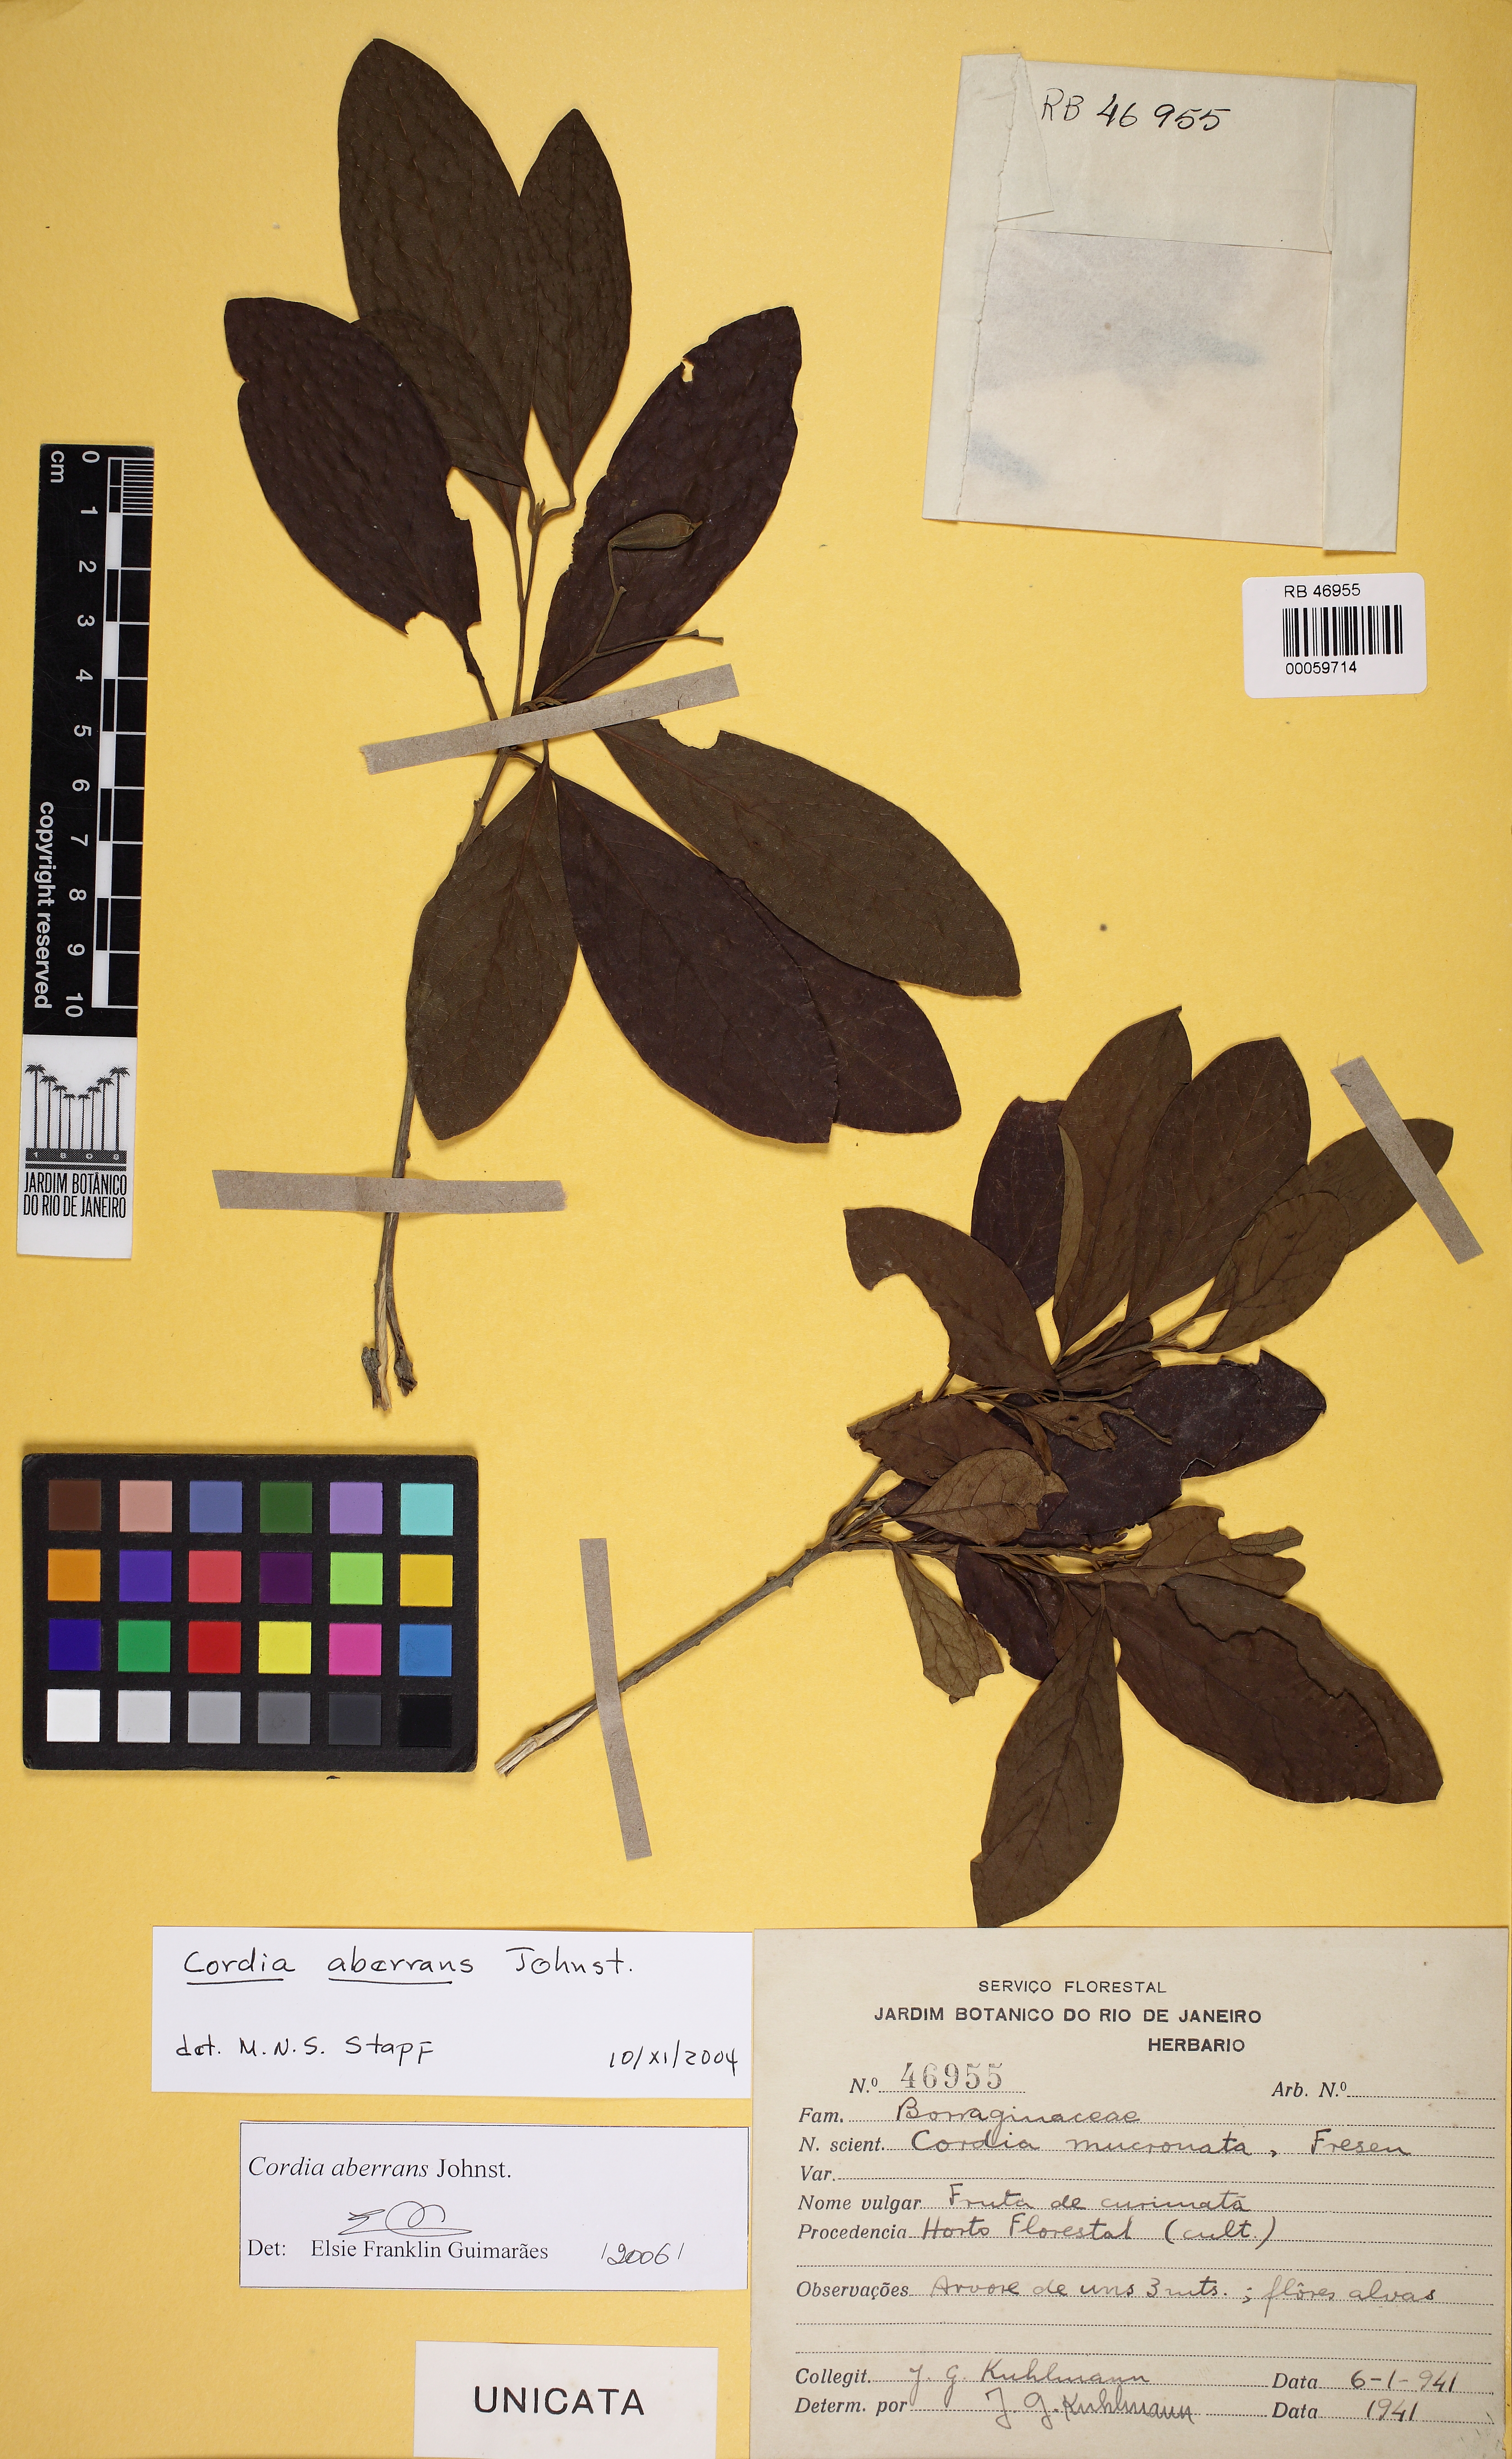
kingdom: Plantae
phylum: Tracheophyta
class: Magnoliopsida
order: Boraginales
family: Cordiaceae
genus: Cordia
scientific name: Cordia aberrans
